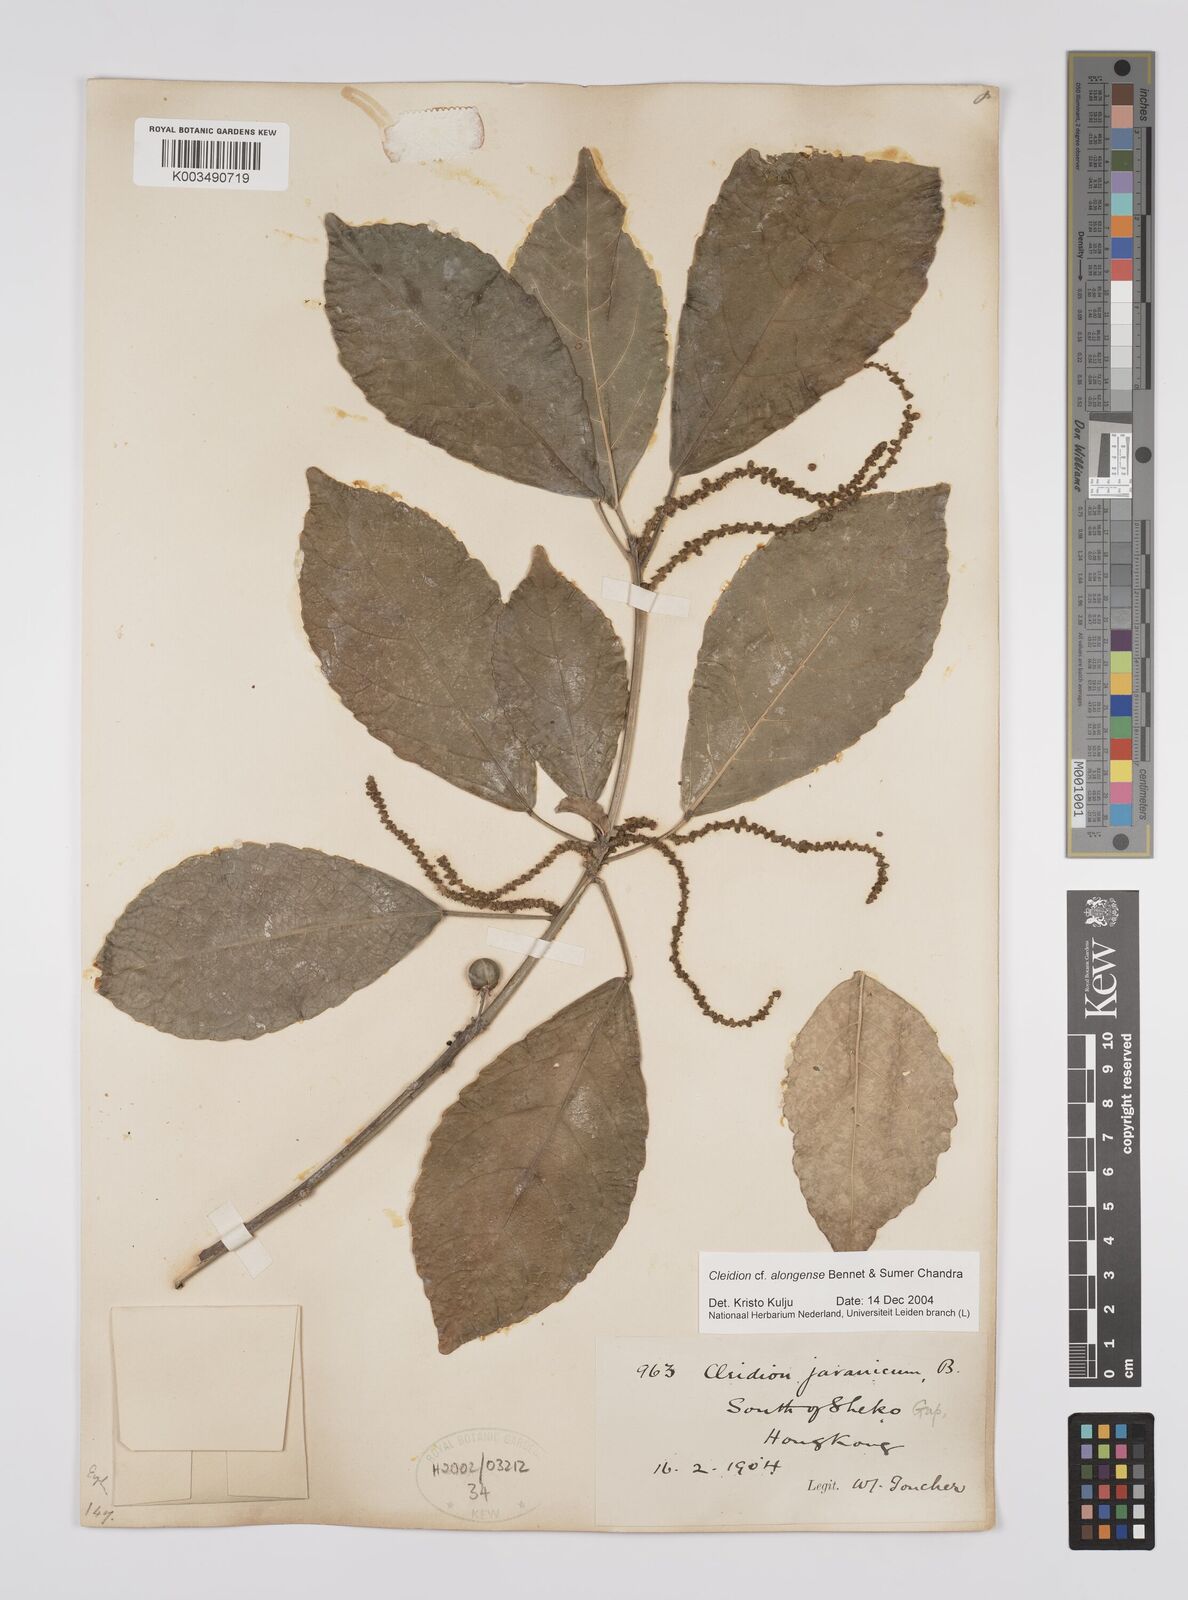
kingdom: Plantae
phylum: Tracheophyta
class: Magnoliopsida
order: Malpighiales
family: Euphorbiaceae
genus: Cleidion
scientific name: Cleidion javanicum
